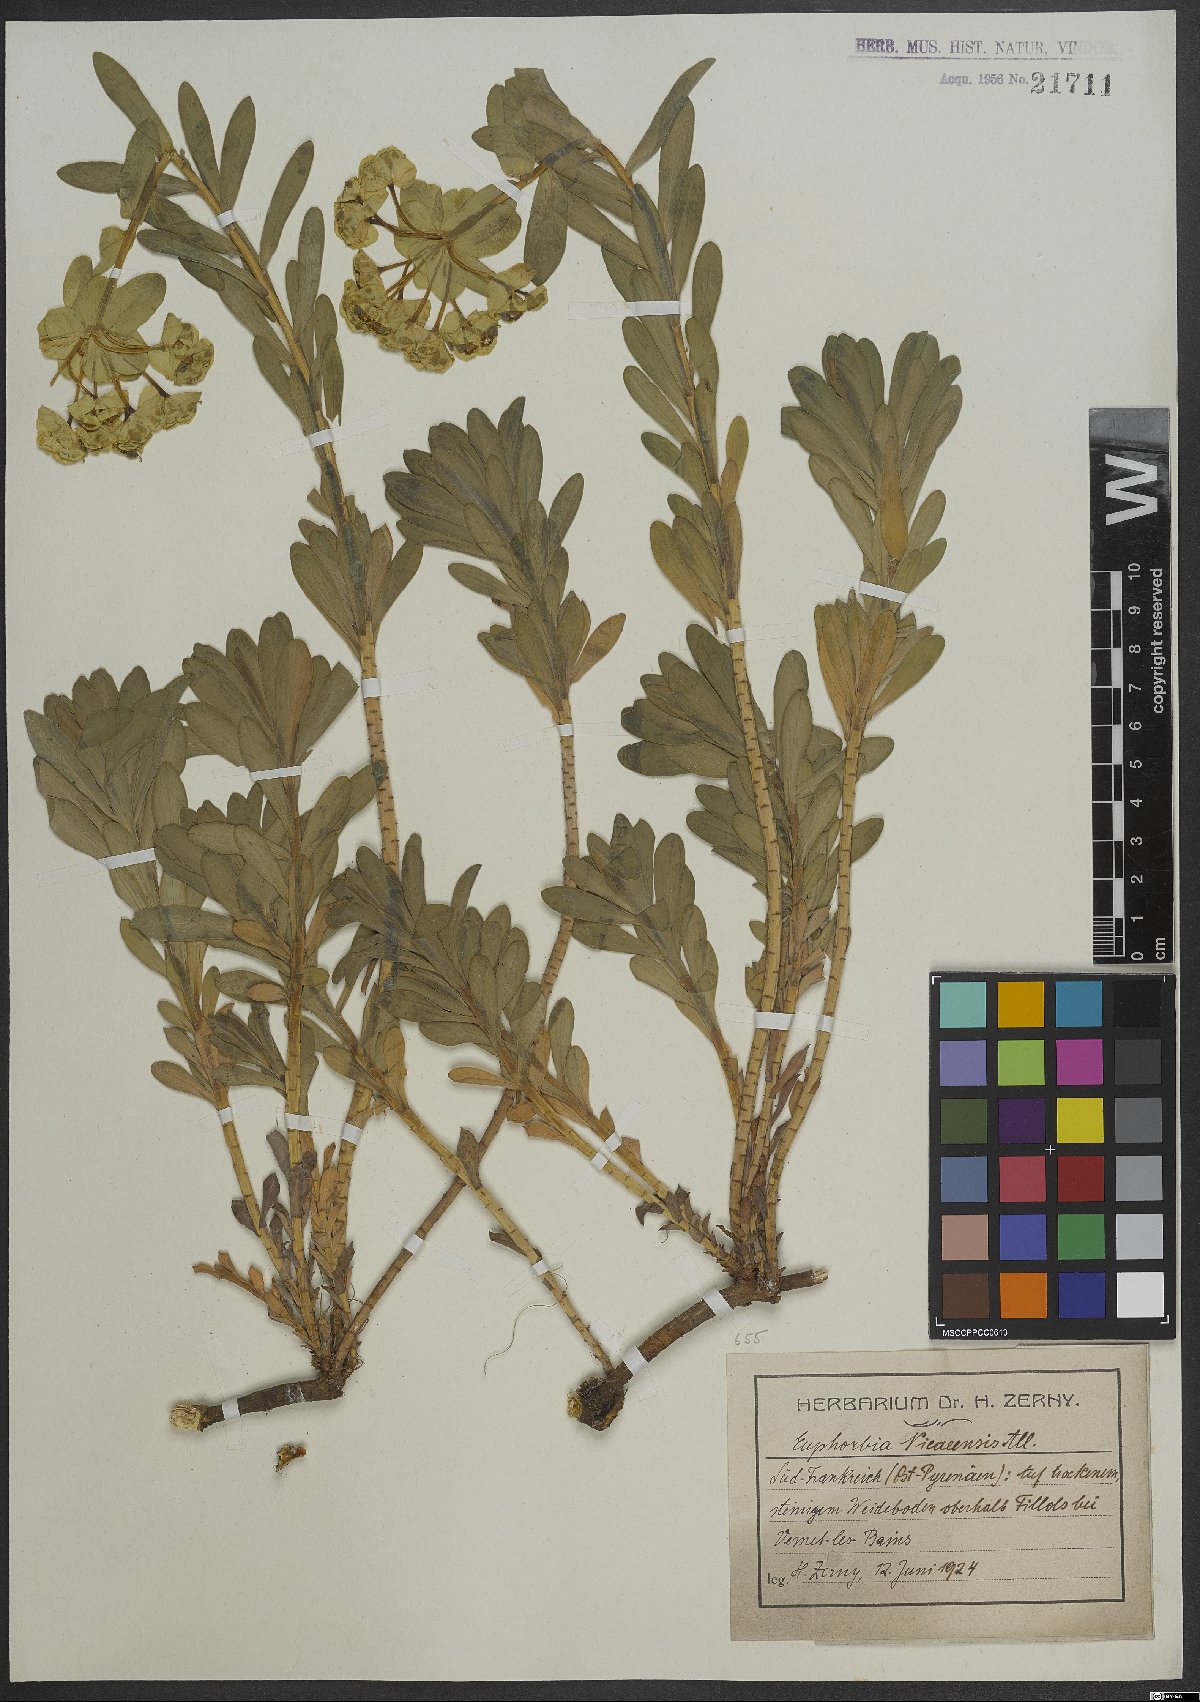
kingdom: Plantae
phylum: Tracheophyta
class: Magnoliopsida
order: Malpighiales
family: Euphorbiaceae
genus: Euphorbia
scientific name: Euphorbia nicaeensis
